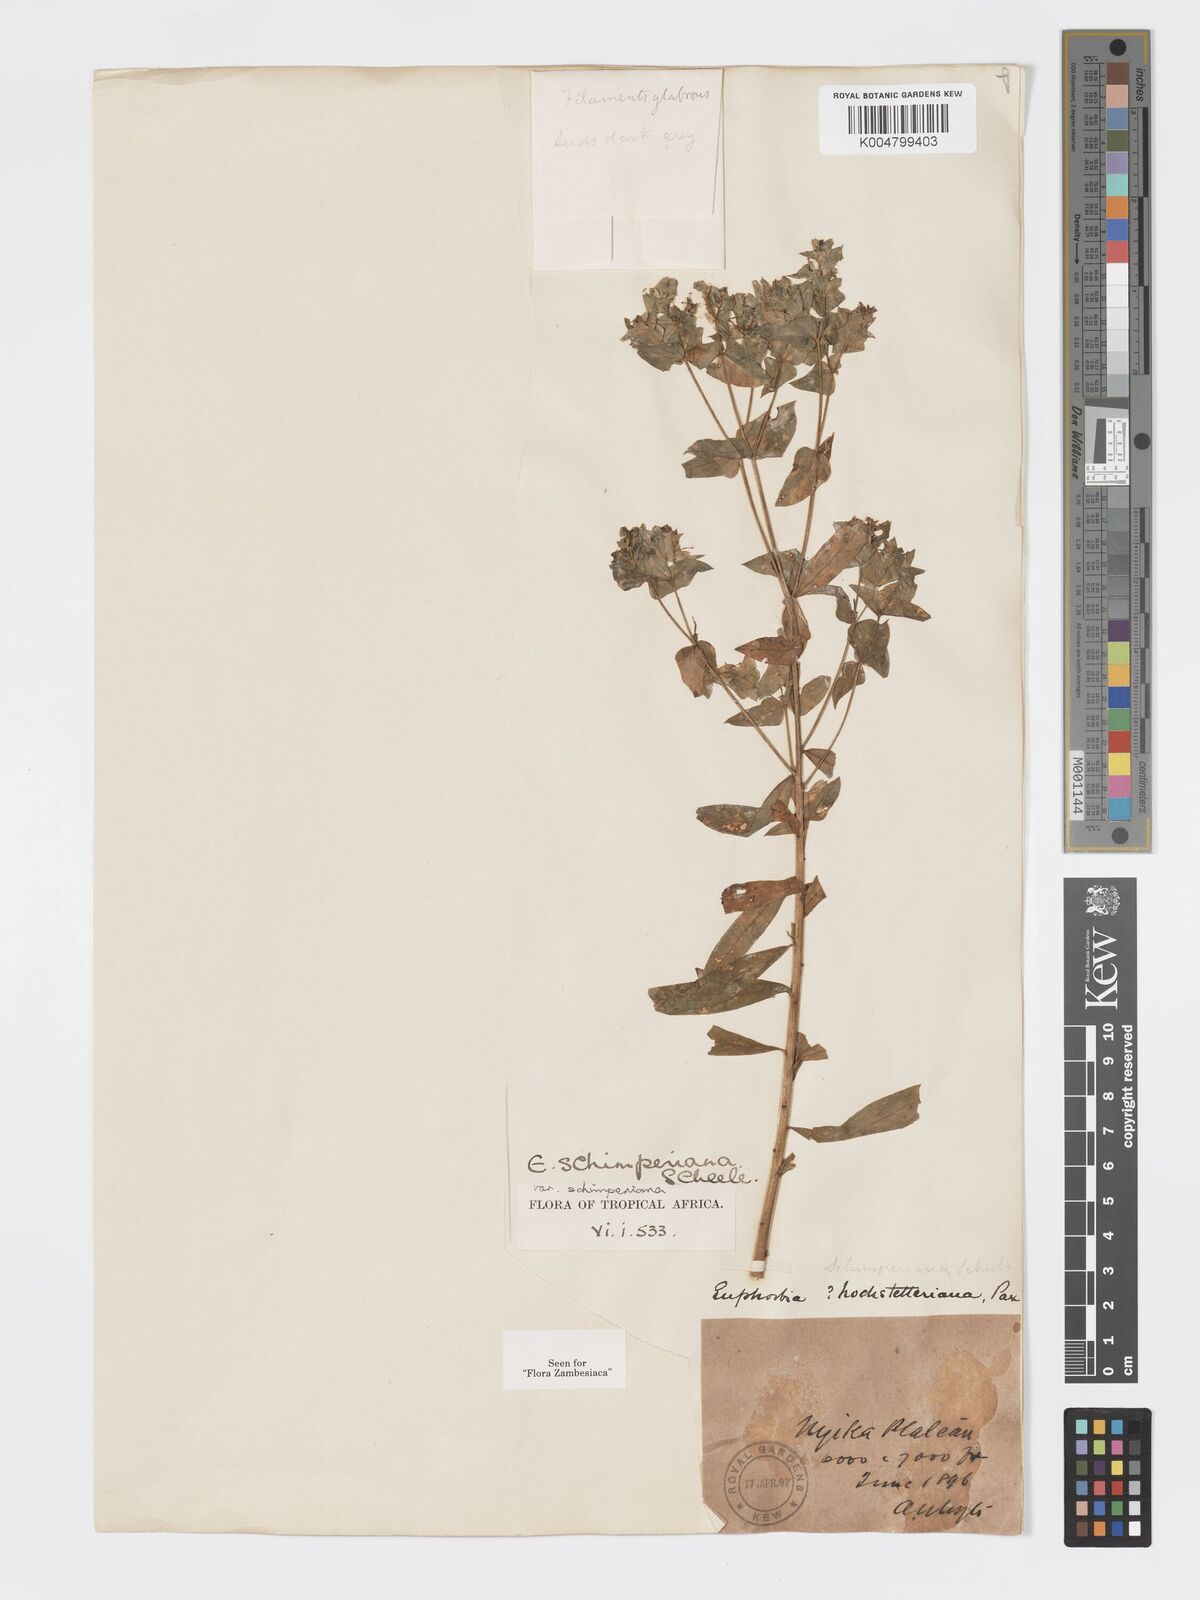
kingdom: Plantae
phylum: Tracheophyta
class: Magnoliopsida
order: Malpighiales
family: Euphorbiaceae
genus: Euphorbia
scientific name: Euphorbia schimperiana
